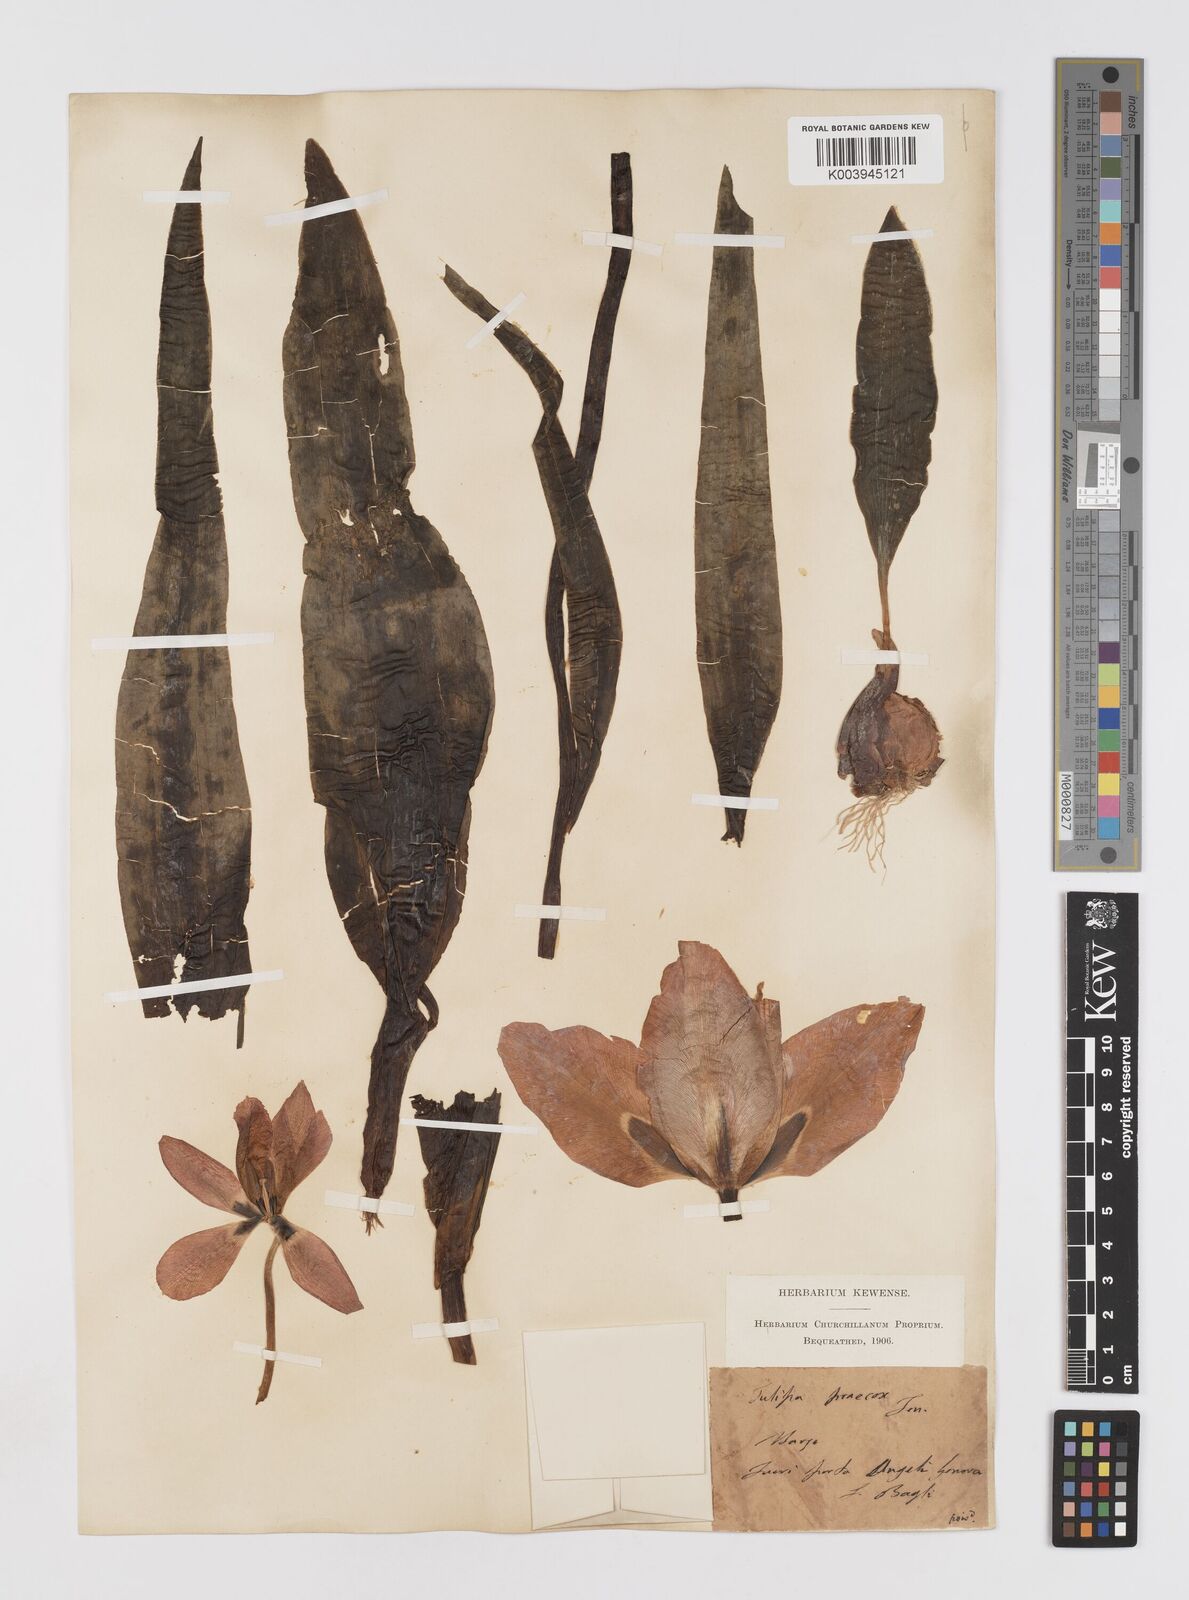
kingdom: Plantae
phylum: Tracheophyta
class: Liliopsida
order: Liliales
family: Liliaceae
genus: Tulipa
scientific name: Tulipa
